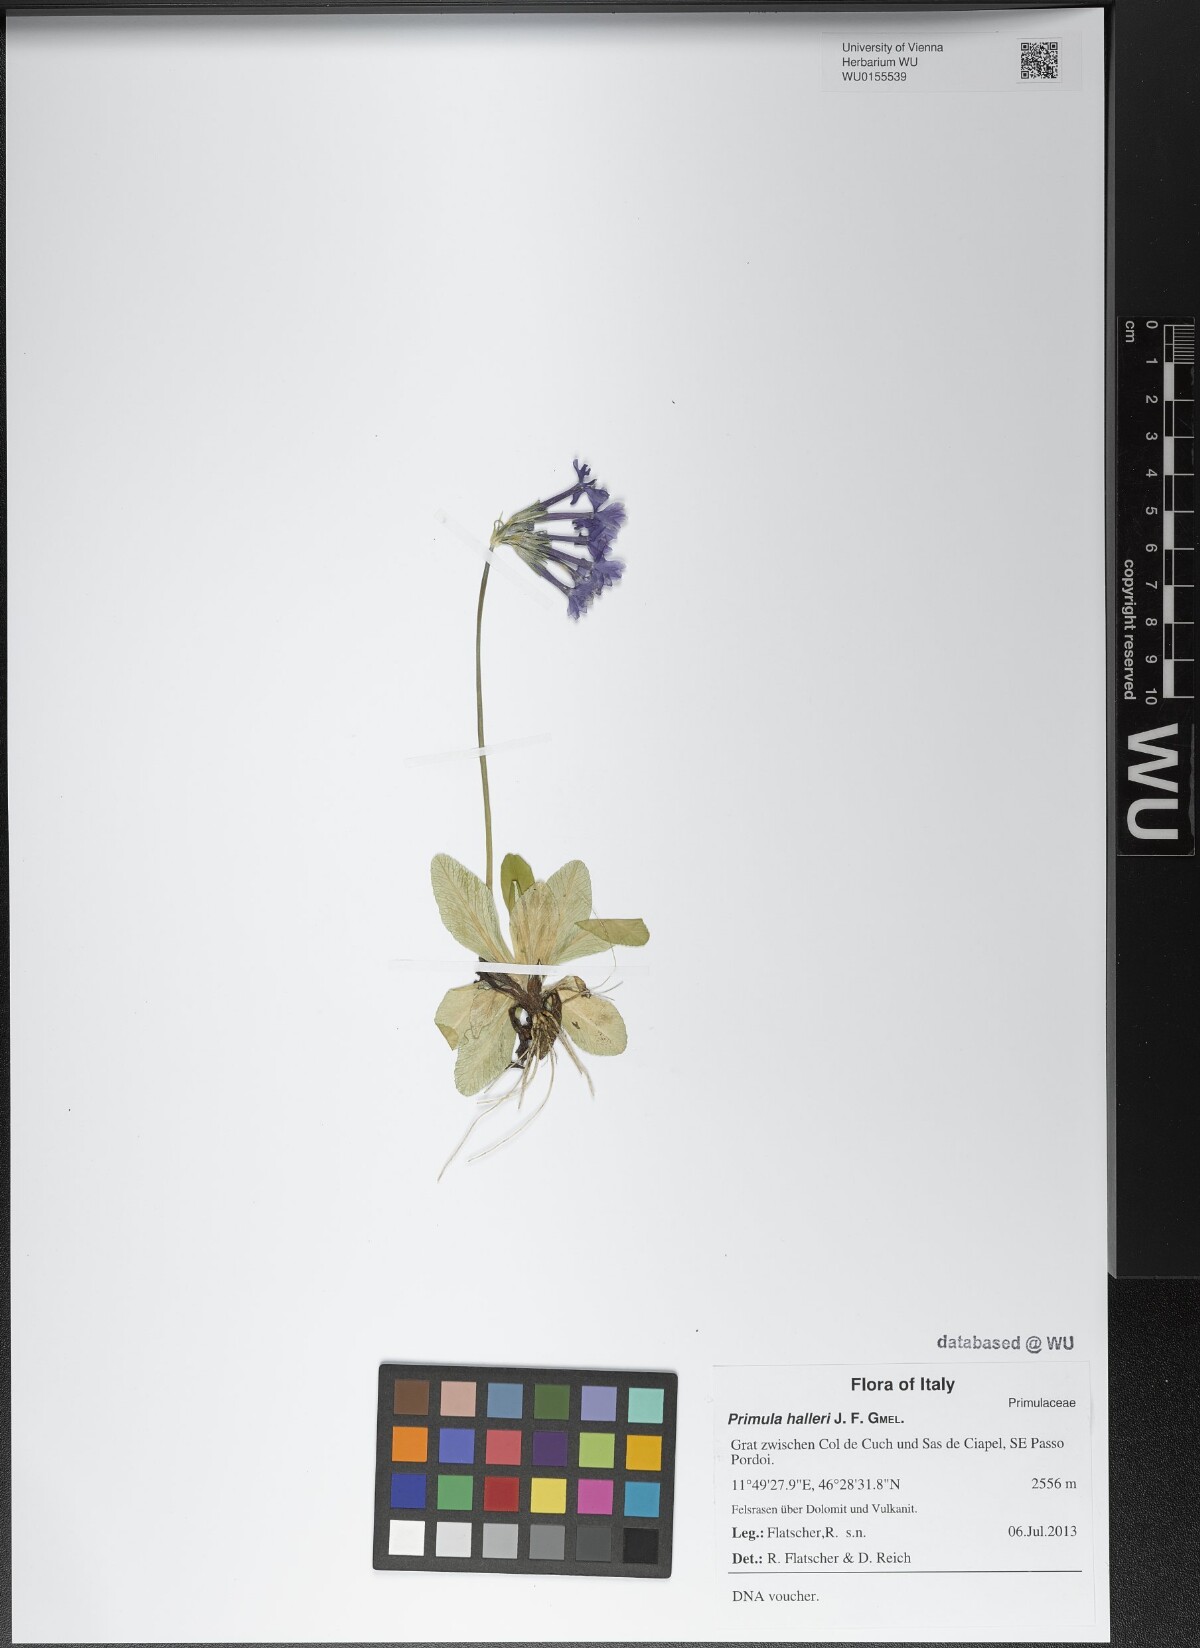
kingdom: Plantae
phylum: Tracheophyta
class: Magnoliopsida
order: Ericales
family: Primulaceae
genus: Primula
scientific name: Primula halleri
